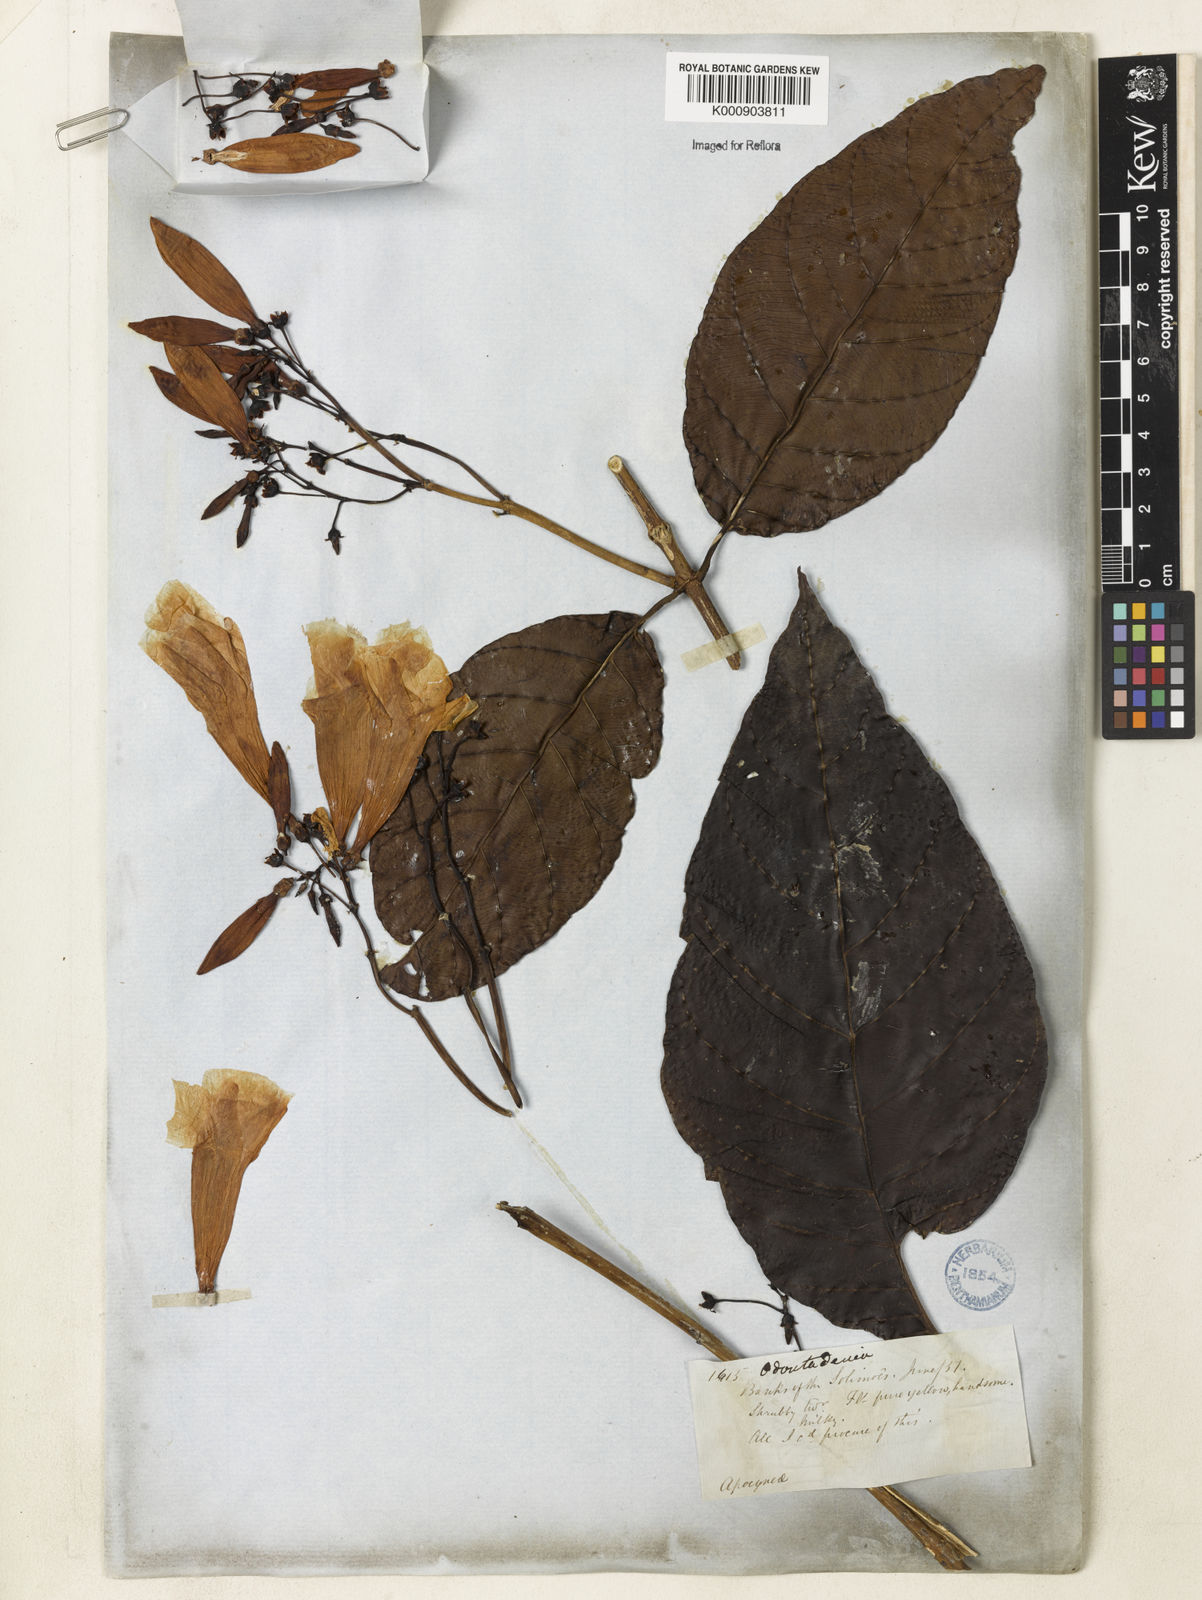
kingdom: Plantae
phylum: Tracheophyta
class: Magnoliopsida
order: Gentianales
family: Apocynaceae
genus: Odontadenia
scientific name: Odontadenia semidigyna
